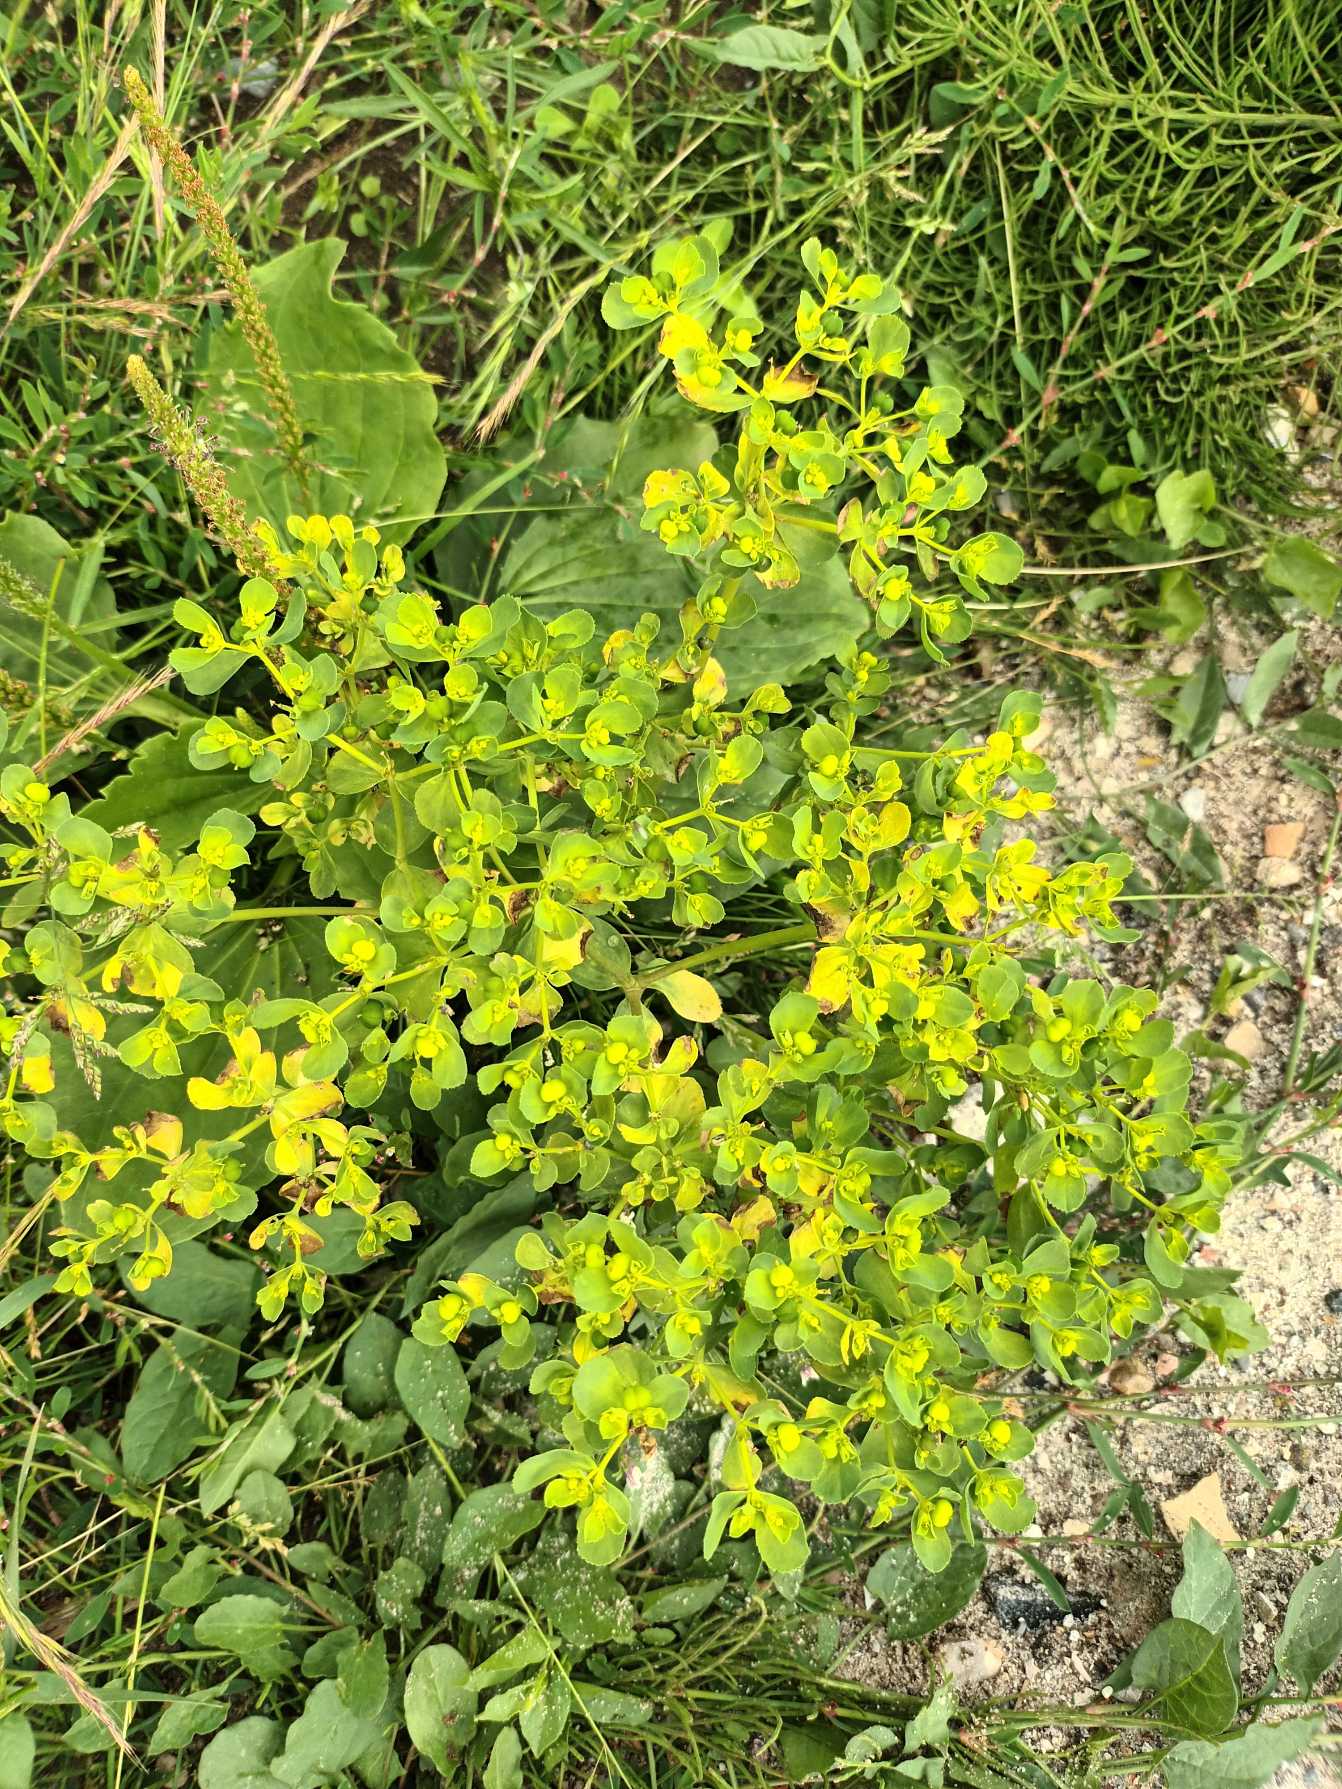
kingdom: Plantae
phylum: Tracheophyta
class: Magnoliopsida
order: Malpighiales
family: Euphorbiaceae
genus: Euphorbia
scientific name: Euphorbia helioscopia
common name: Skærm-vortemælk
